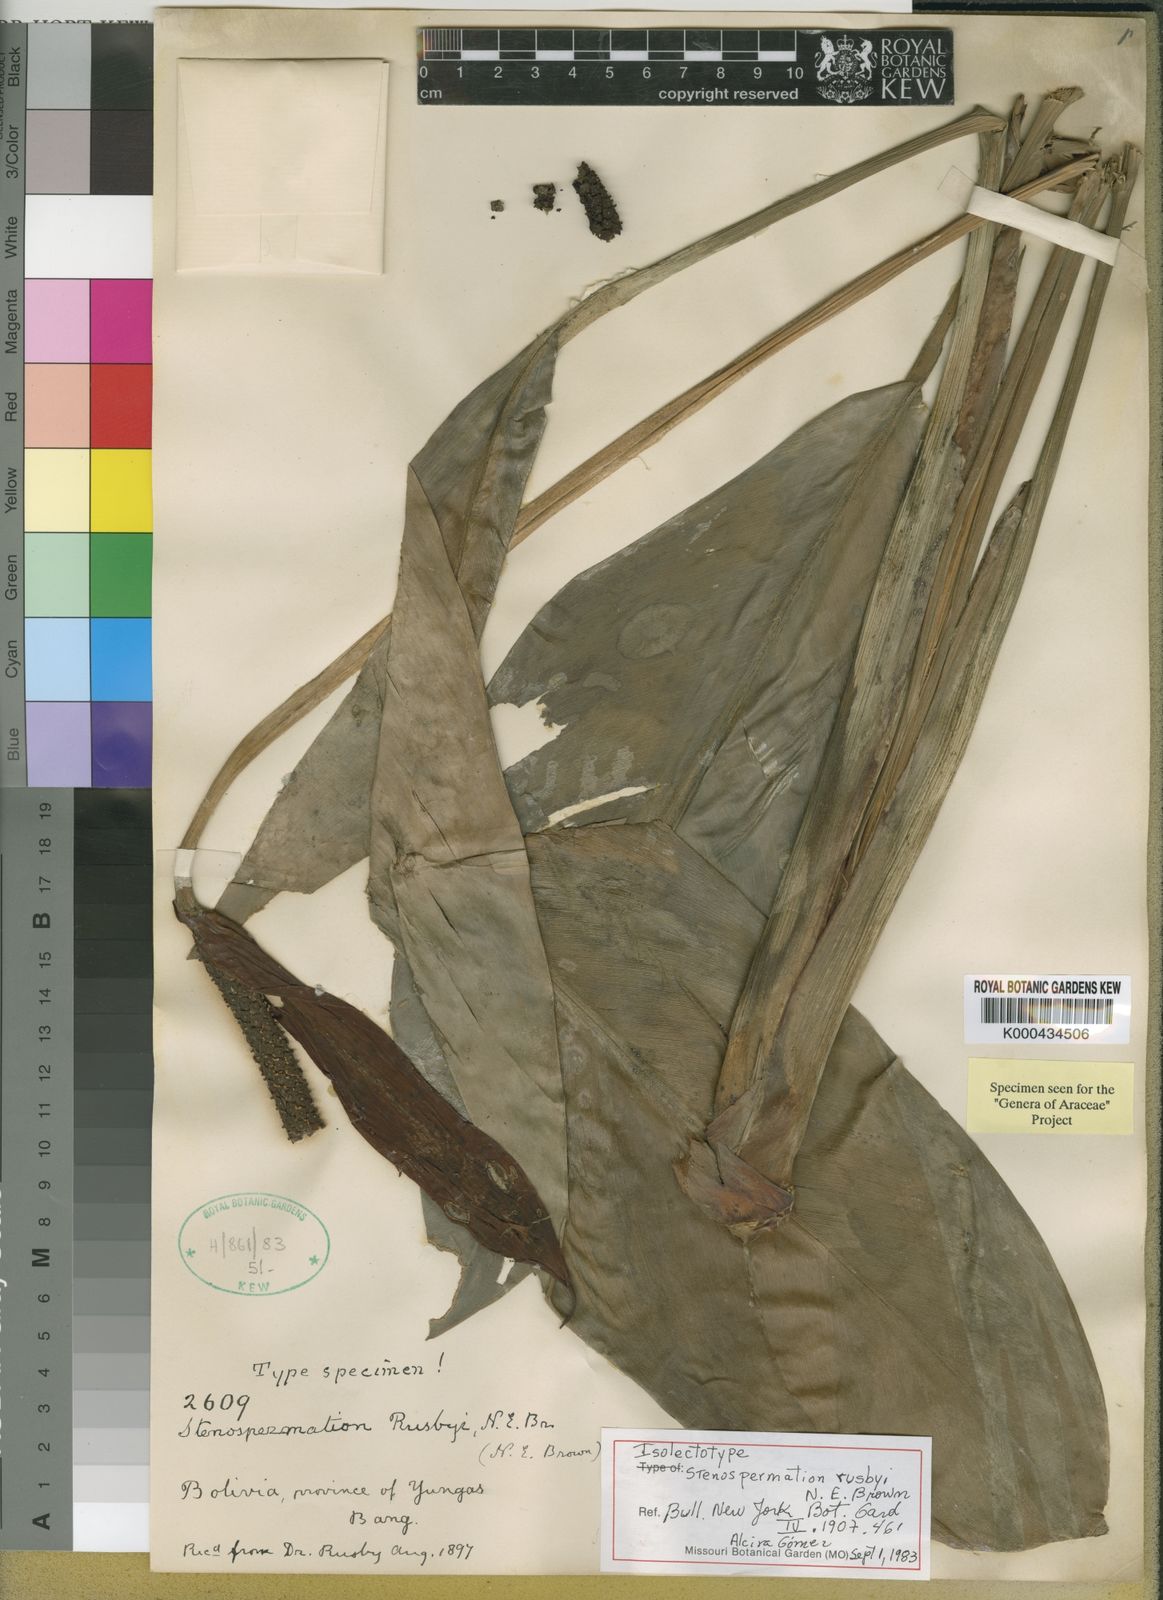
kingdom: Plantae
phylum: Tracheophyta
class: Liliopsida
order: Alismatales
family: Araceae
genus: Stenospermation
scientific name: Stenospermation rusbyi
